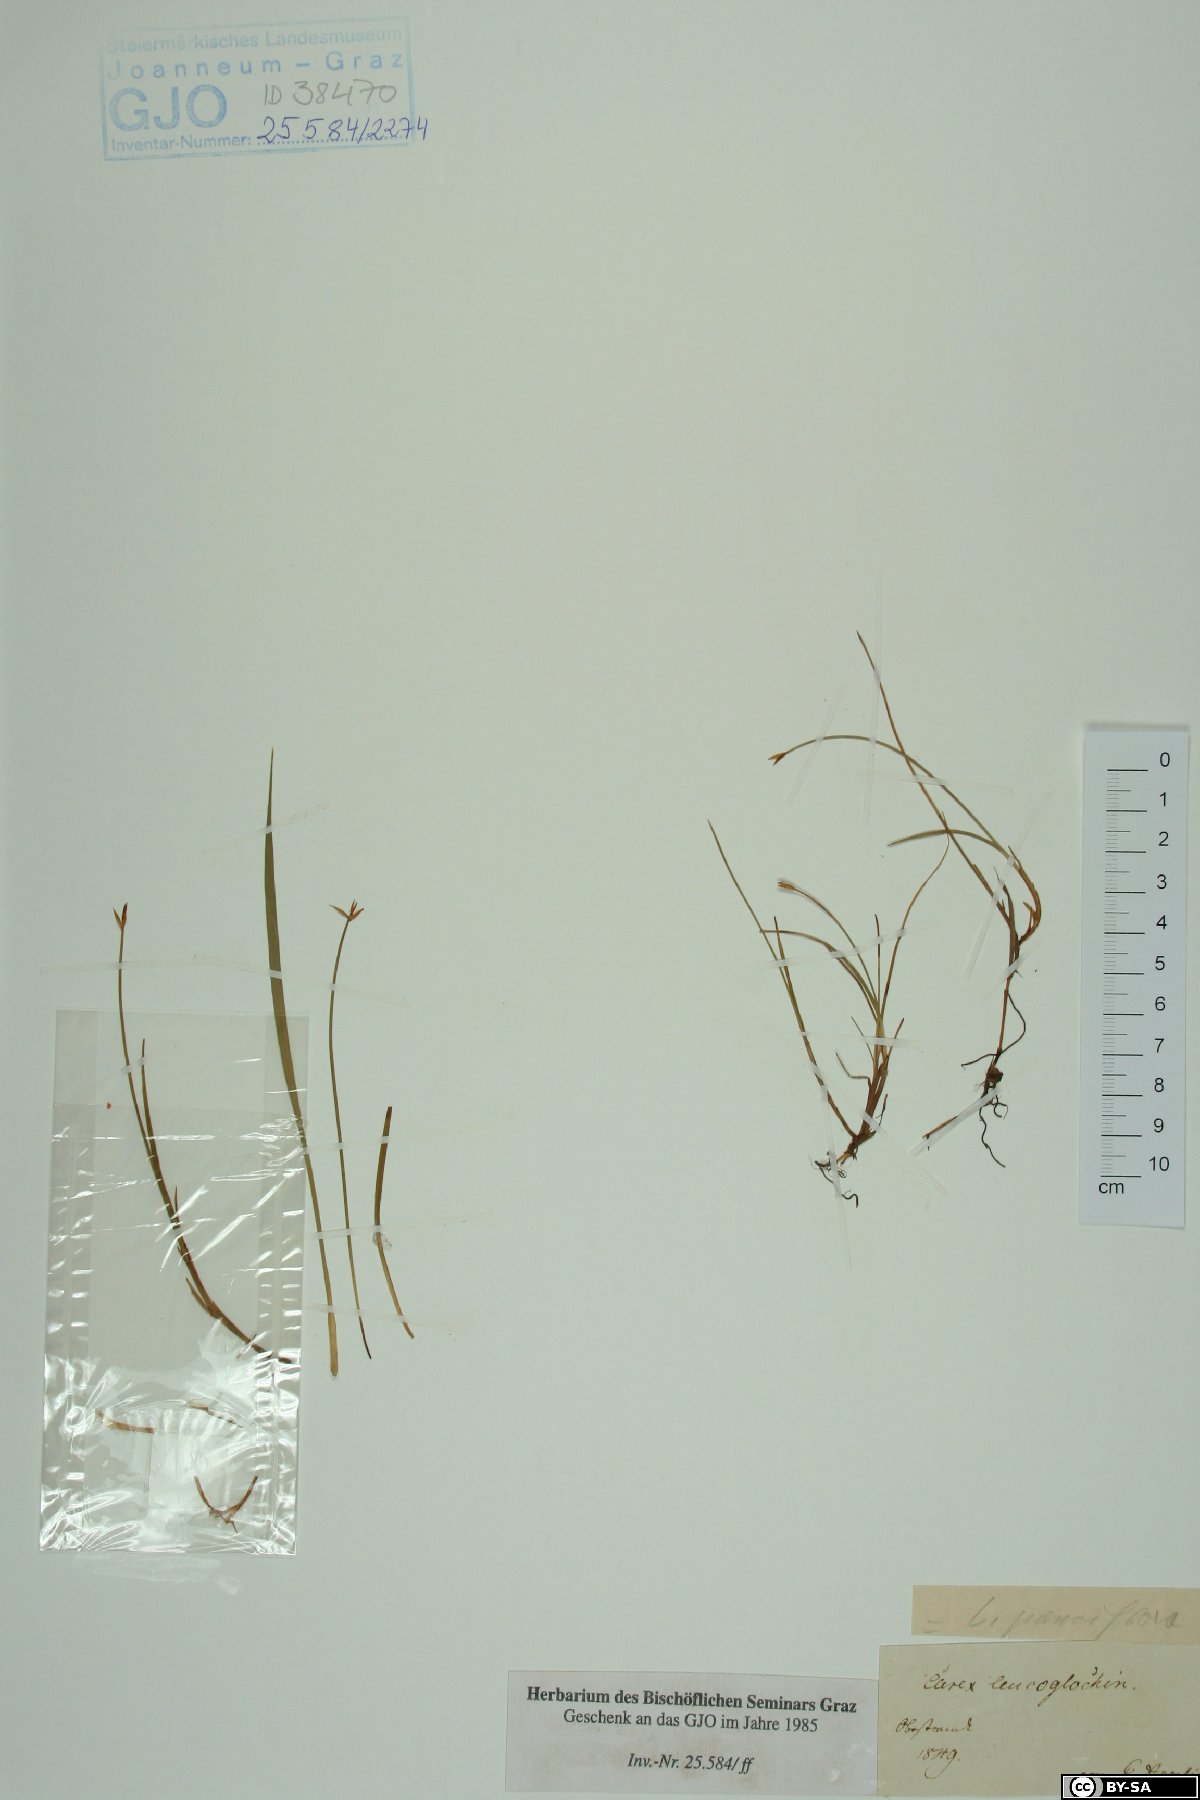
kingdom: Plantae
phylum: Tracheophyta
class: Liliopsida
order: Poales
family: Cyperaceae
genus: Carex
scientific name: Carex obtusata
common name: Blunt sedge
